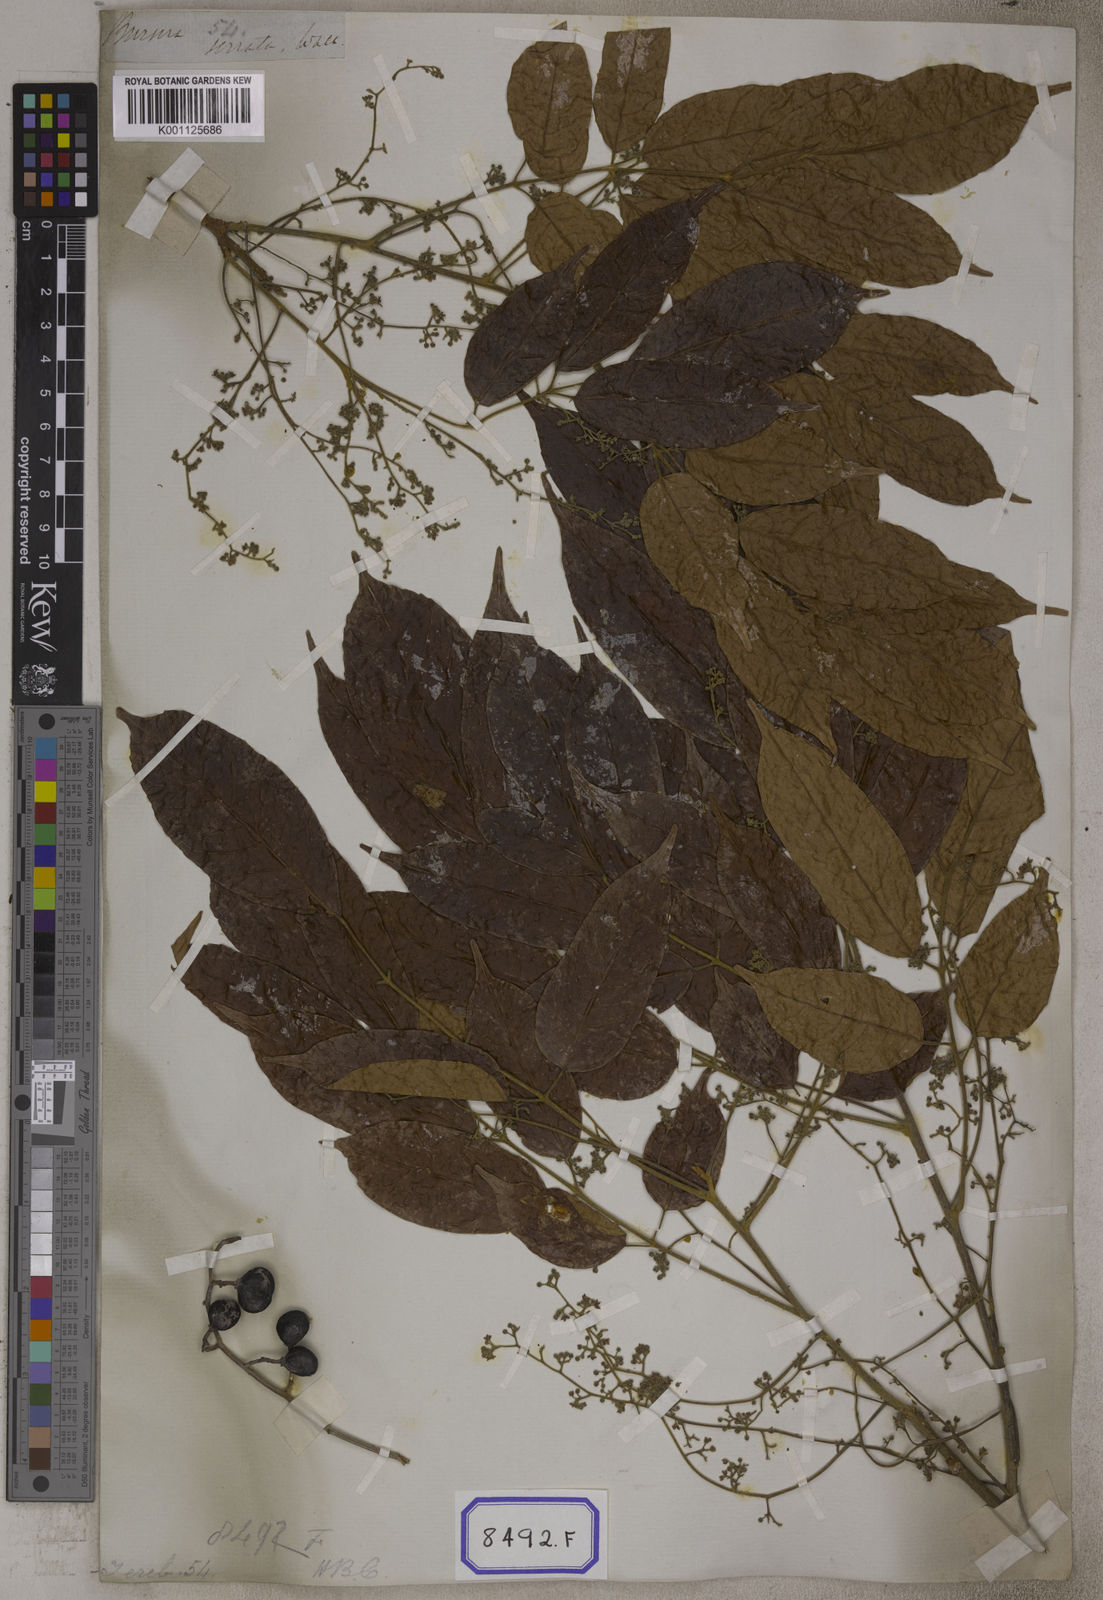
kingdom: Plantae
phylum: Tracheophyta
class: Magnoliopsida
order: Sapindales
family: Burseraceae
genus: Protium
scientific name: Protium serratum
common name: Murtenga
